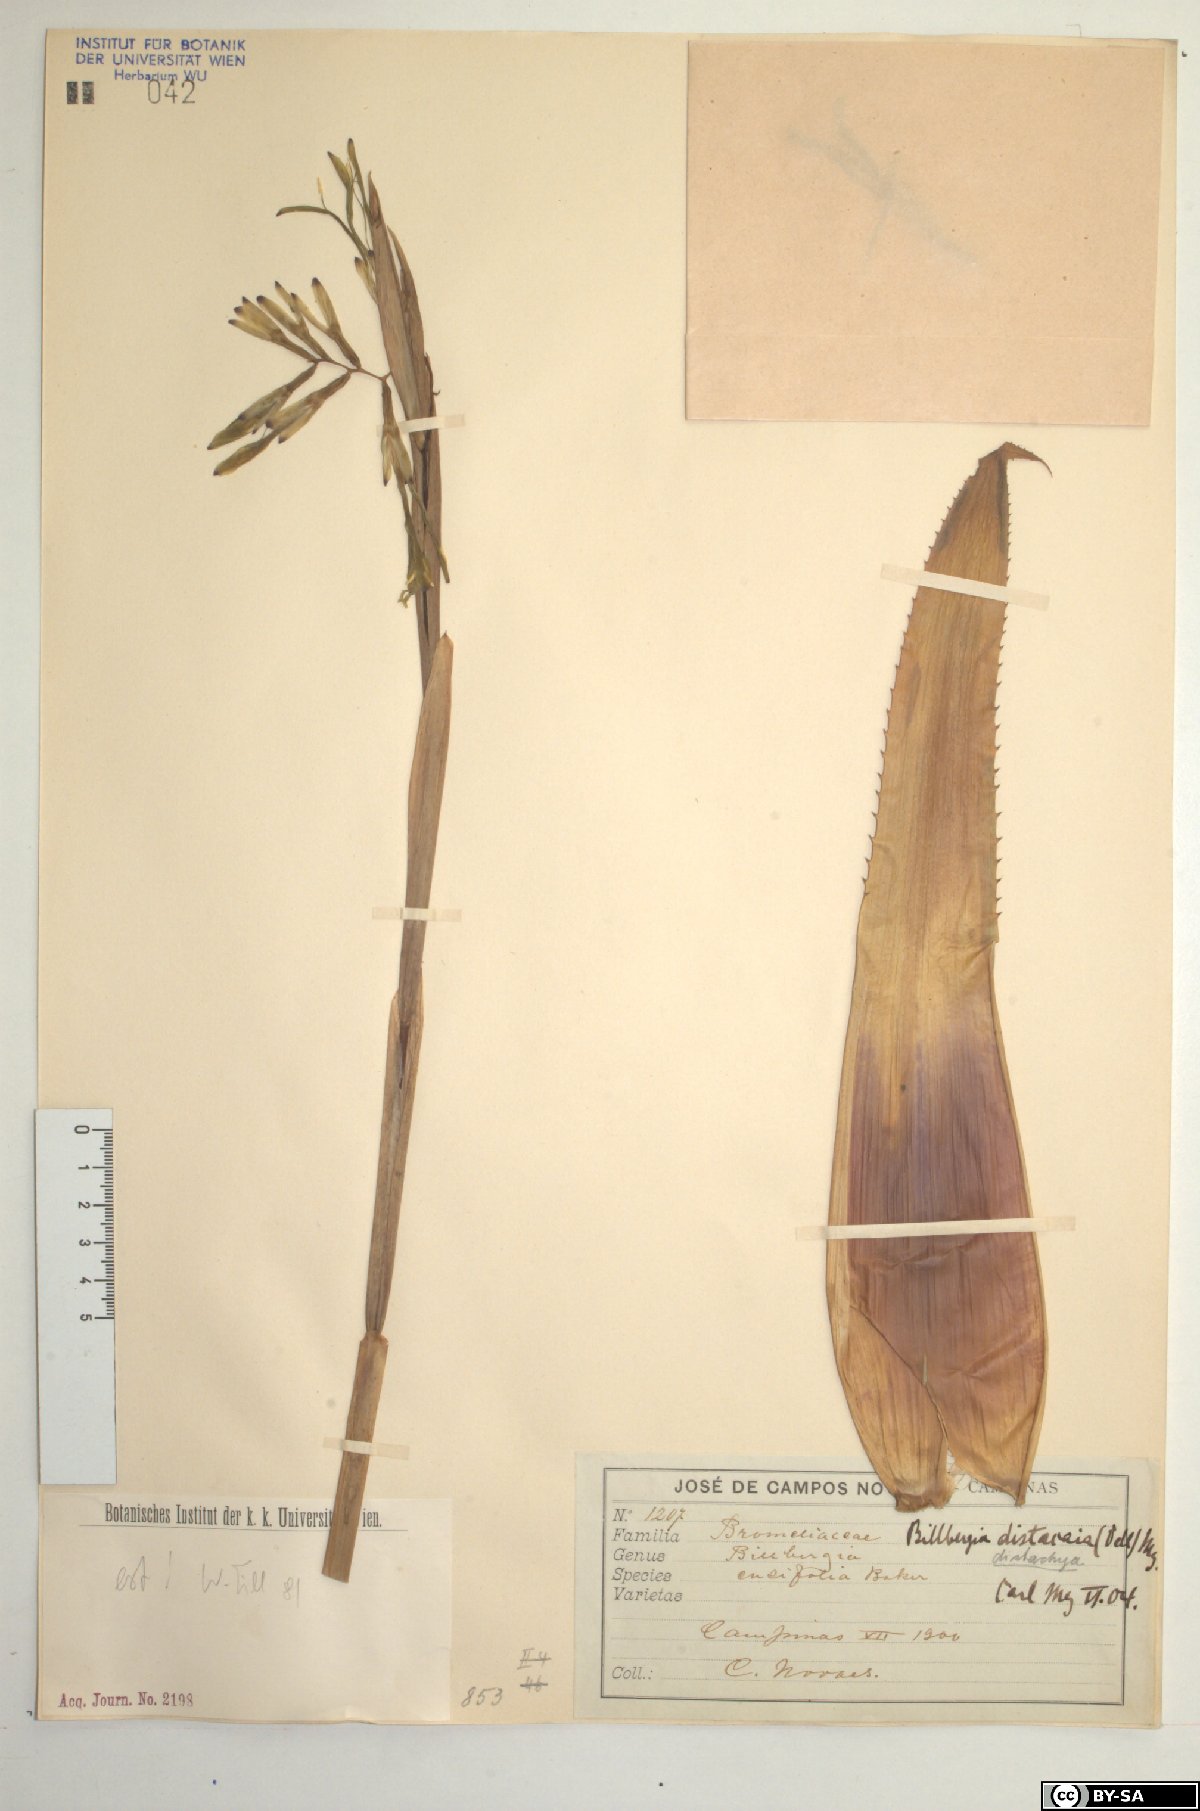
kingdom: Plantae
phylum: Tracheophyta
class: Liliopsida
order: Poales
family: Bromeliaceae
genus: Billbergia
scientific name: Billbergia distachia
